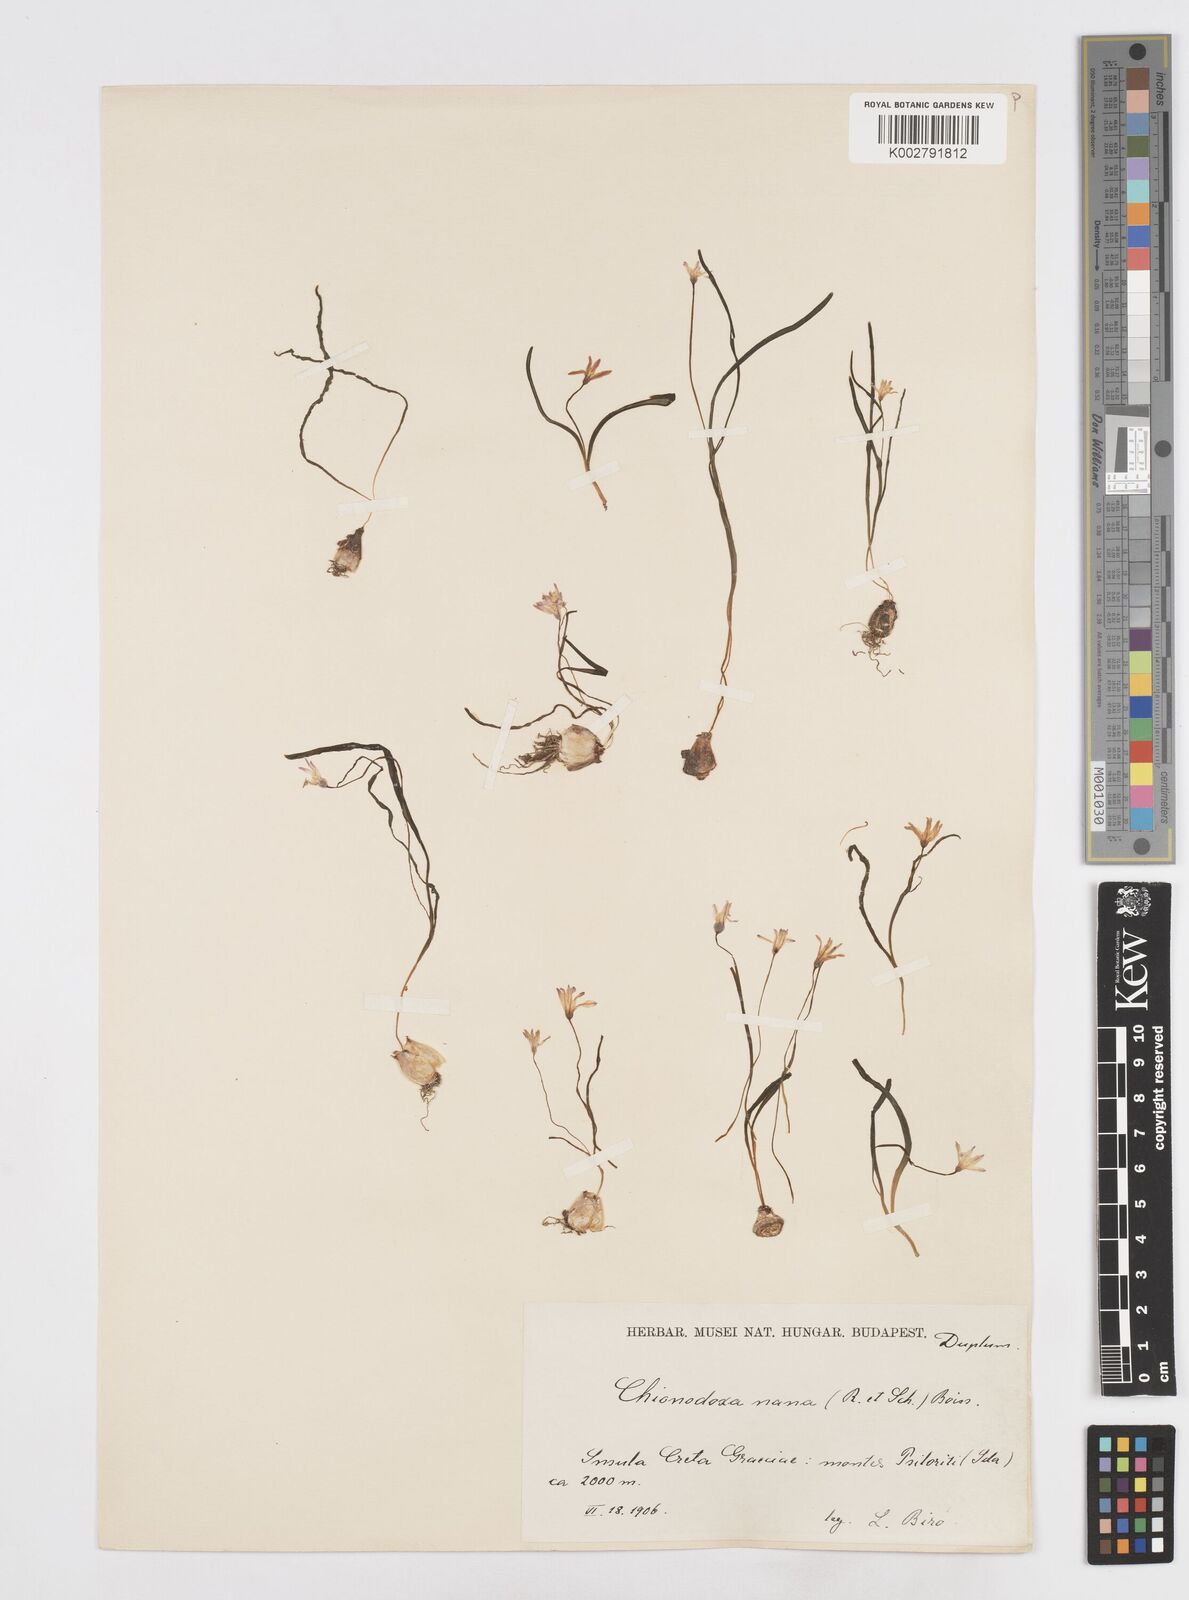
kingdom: Plantae
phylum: Tracheophyta
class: Liliopsida
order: Asparagales
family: Asparagaceae
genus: Scilla
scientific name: Scilla cretica
